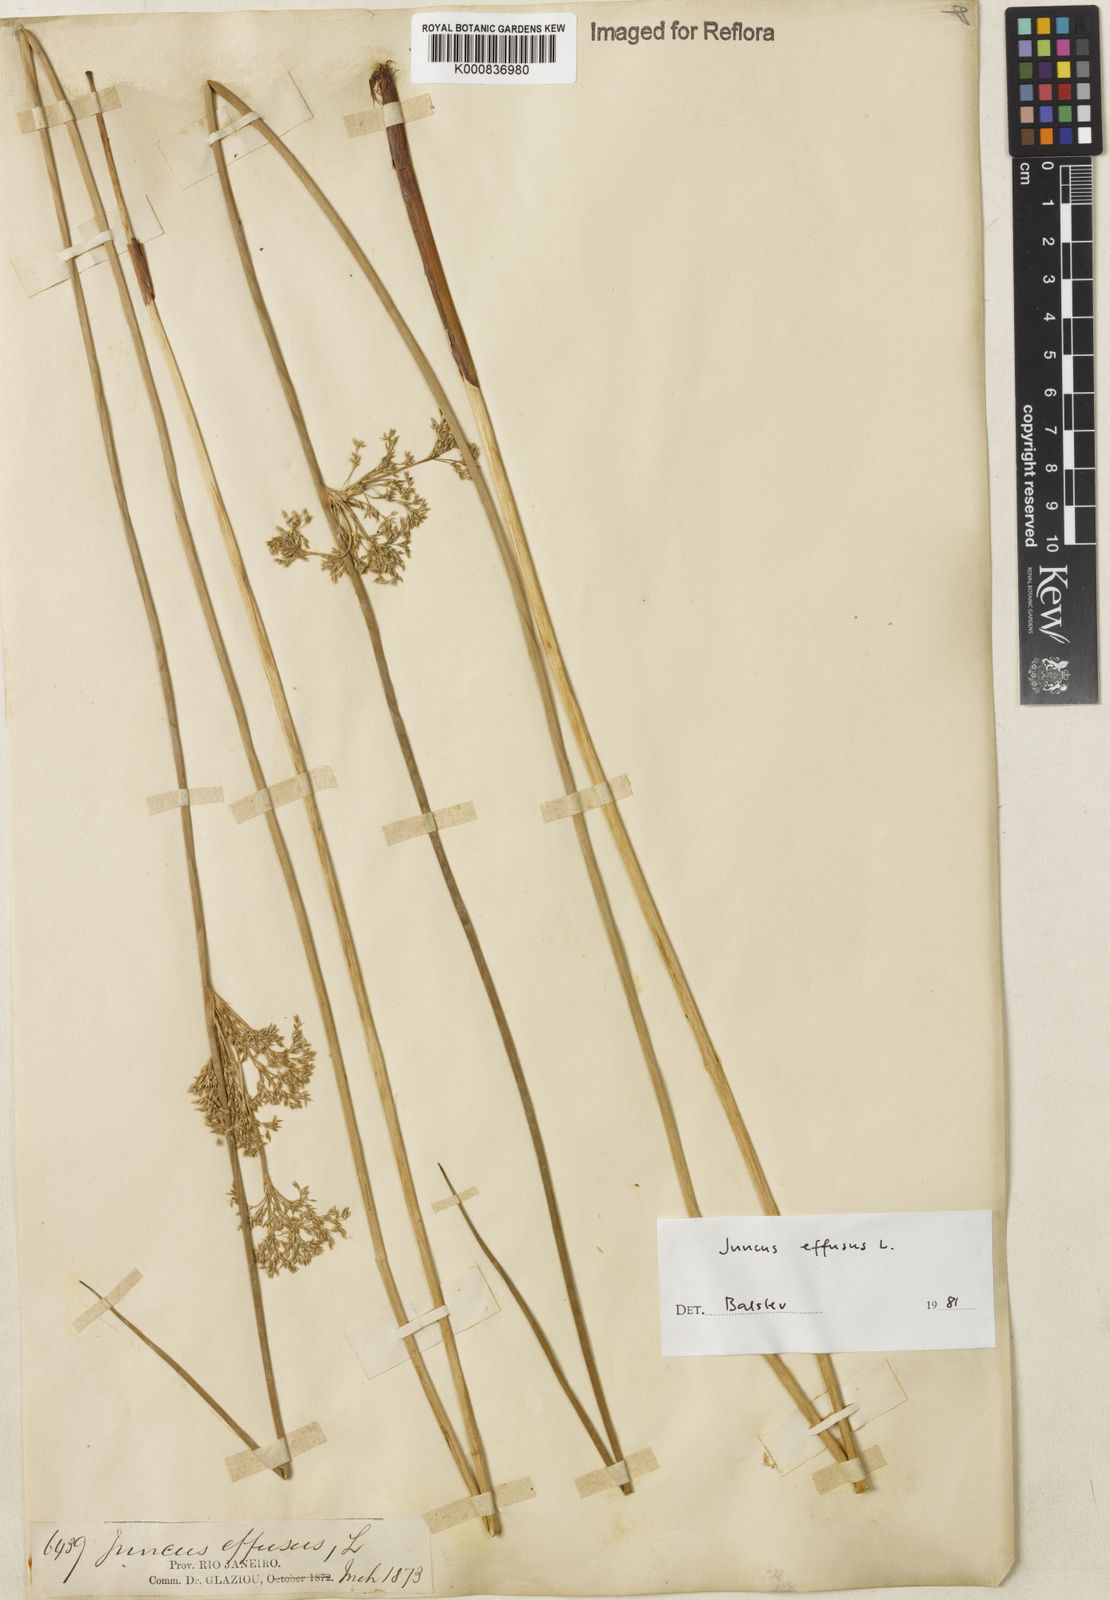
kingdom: Plantae
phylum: Tracheophyta
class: Liliopsida
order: Poales
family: Juncaceae
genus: Juncus
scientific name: Juncus effusus
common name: Soft rush
